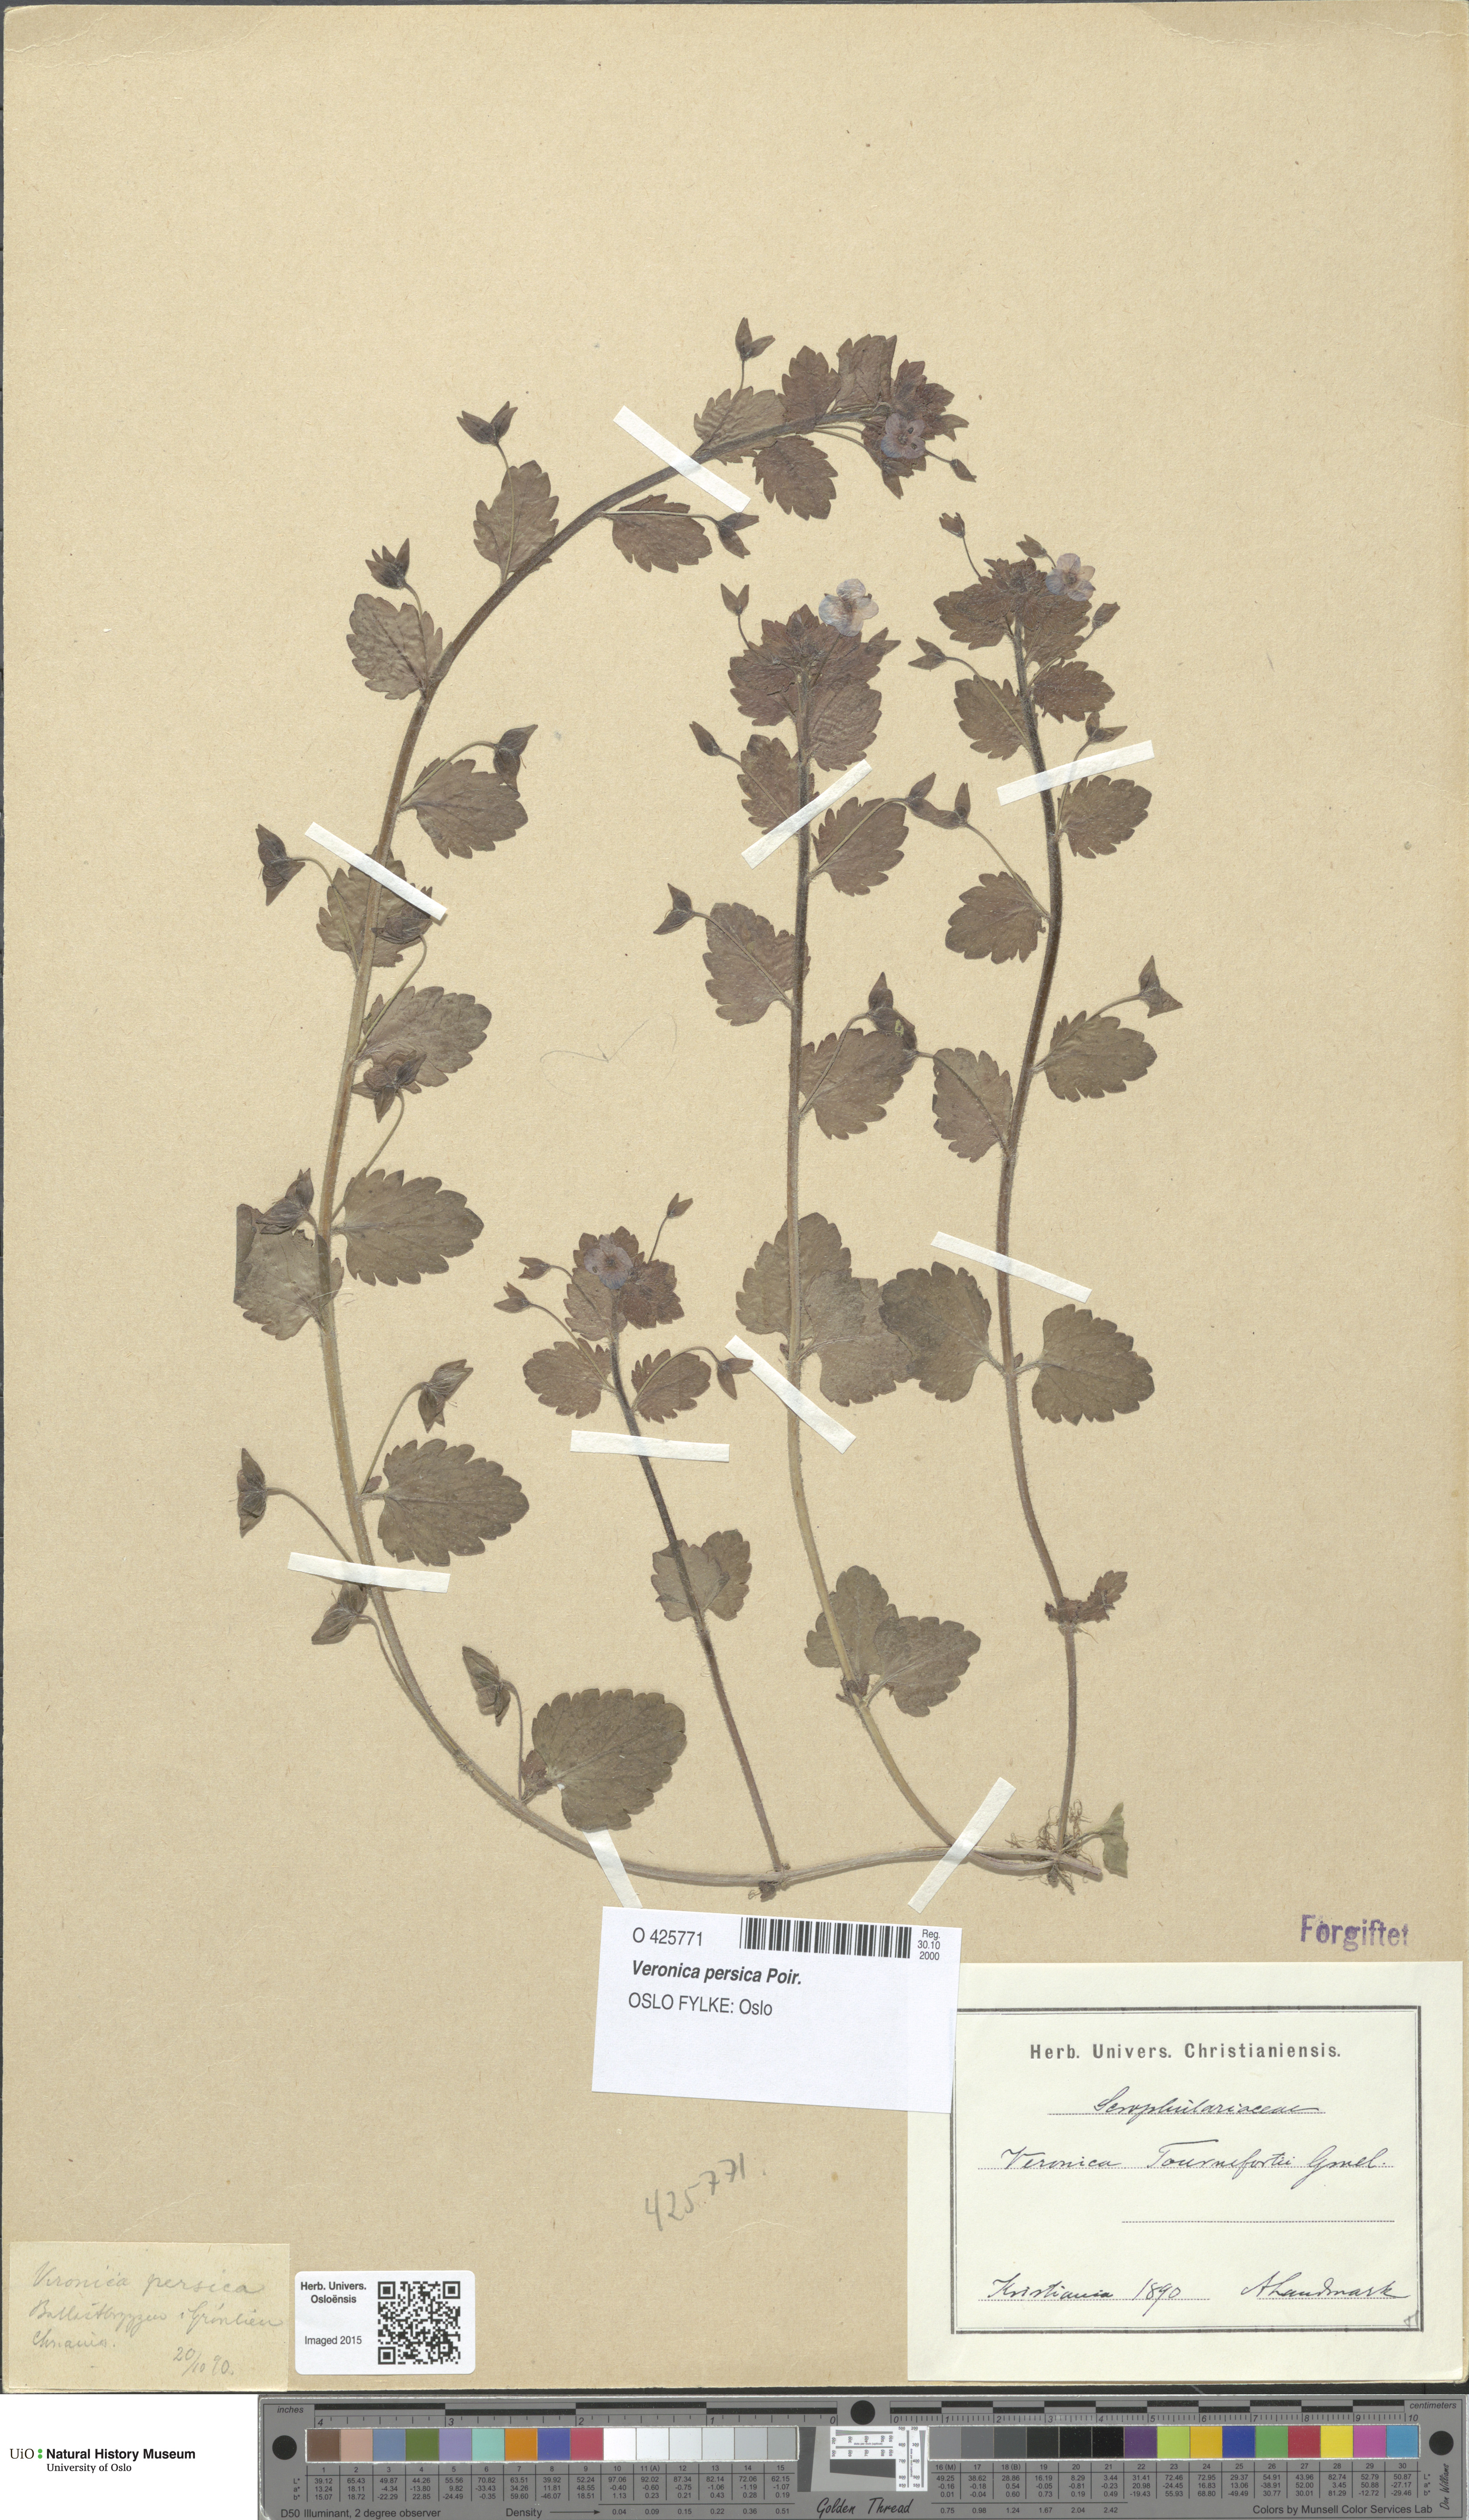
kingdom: Plantae
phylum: Tracheophyta
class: Magnoliopsida
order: Lamiales
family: Plantaginaceae
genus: Veronica
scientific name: Veronica persica
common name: Common field-speedwell
